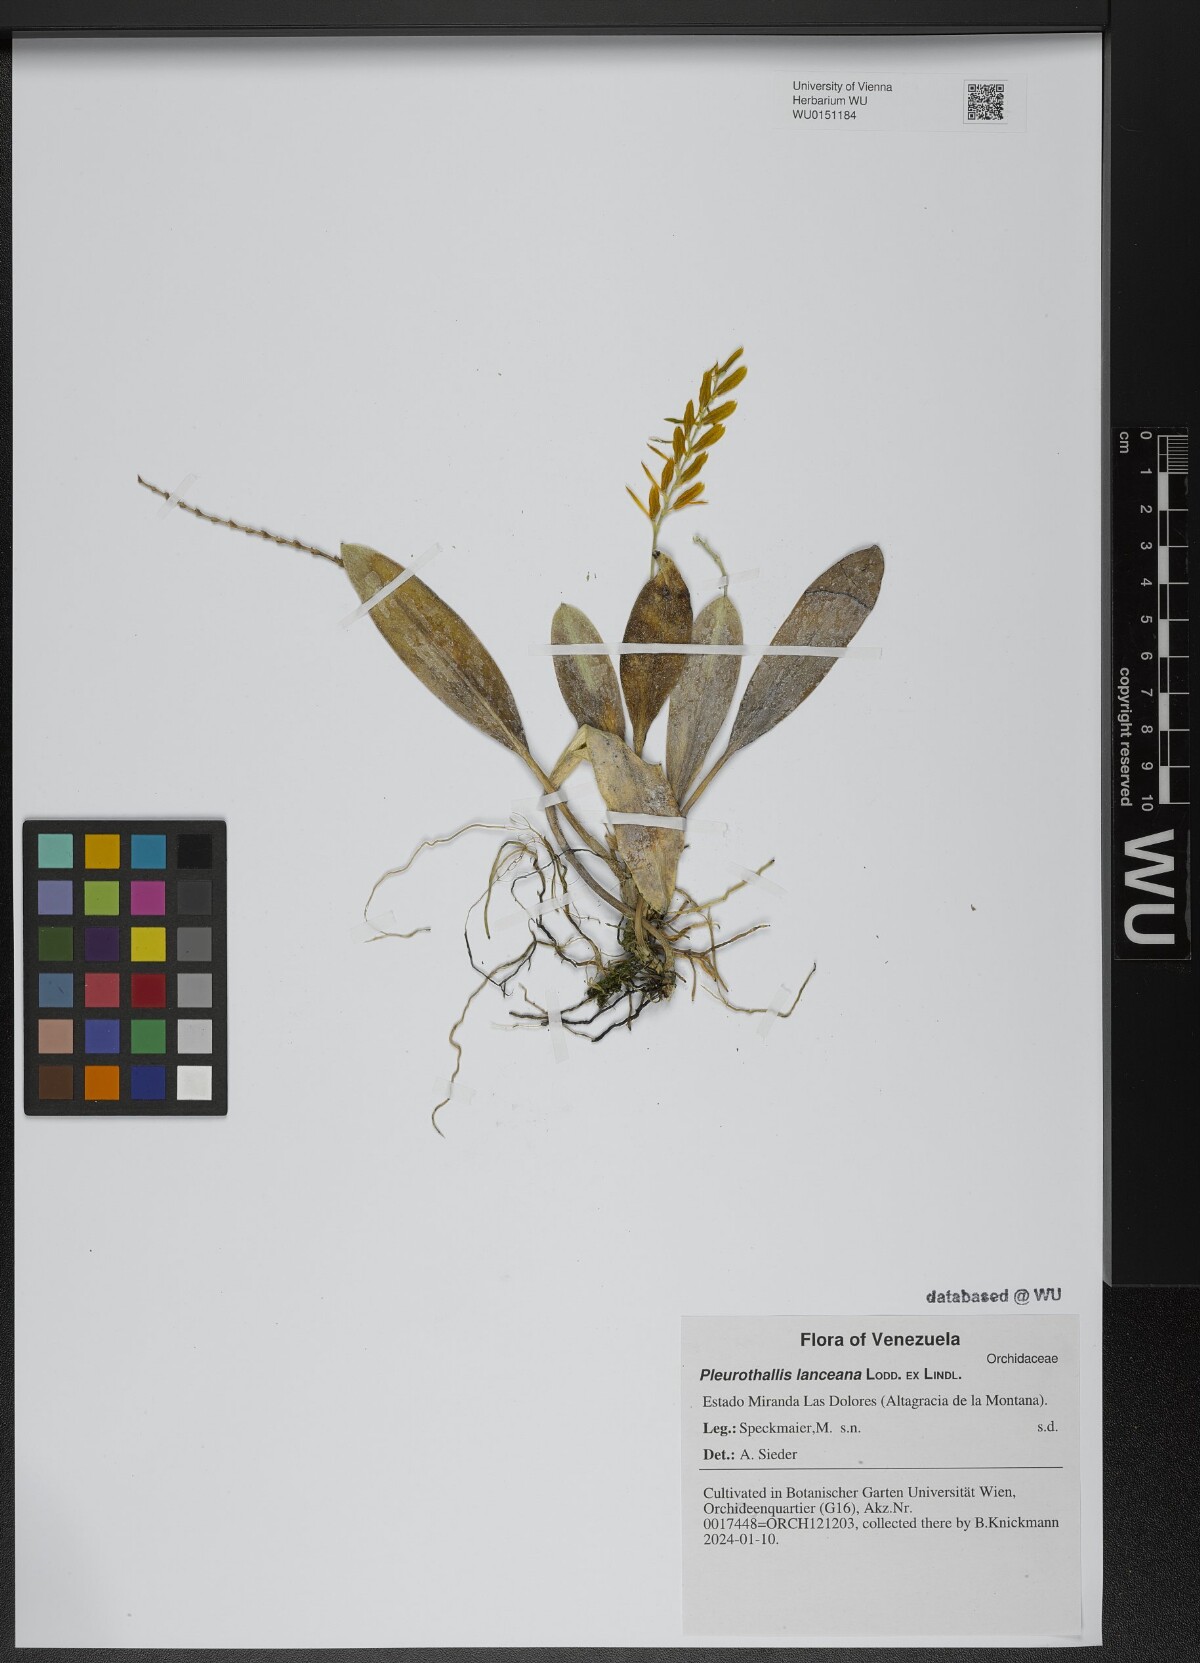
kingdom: Plantae
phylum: Tracheophyta
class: Liliopsida
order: Asparagales
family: Orchidaceae
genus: Acianthera
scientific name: Acianthera ciliata
